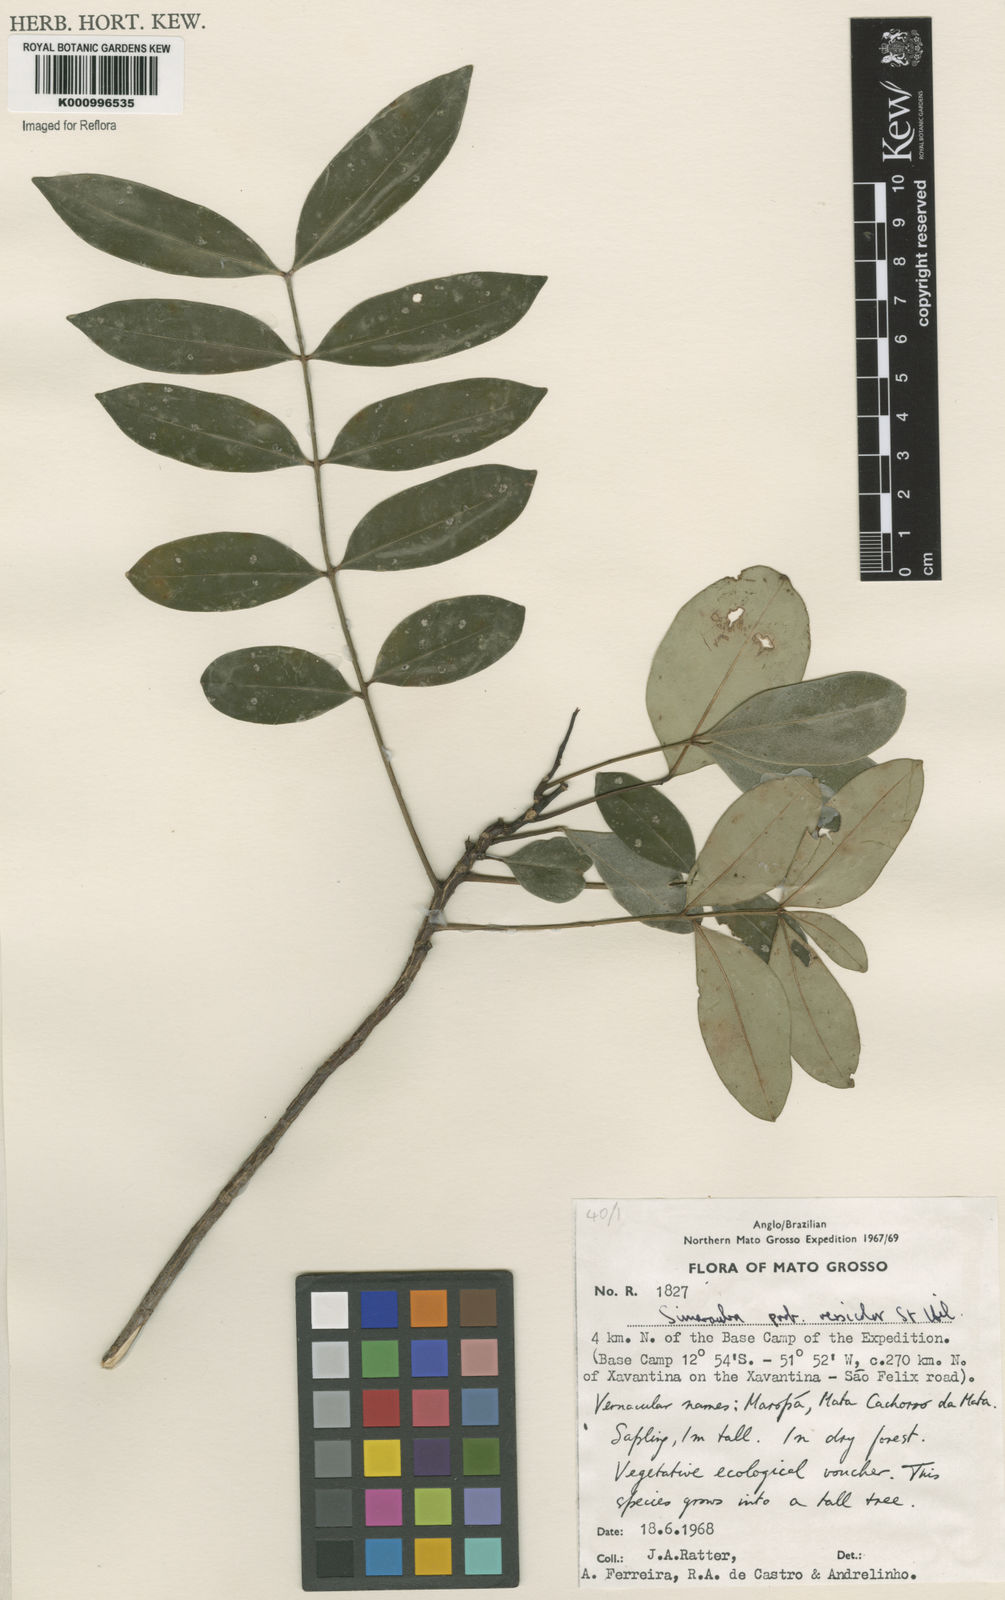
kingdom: Plantae
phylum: Tracheophyta
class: Magnoliopsida
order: Sapindales
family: Simaroubaceae
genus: Simarouba
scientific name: Simarouba versicolor
